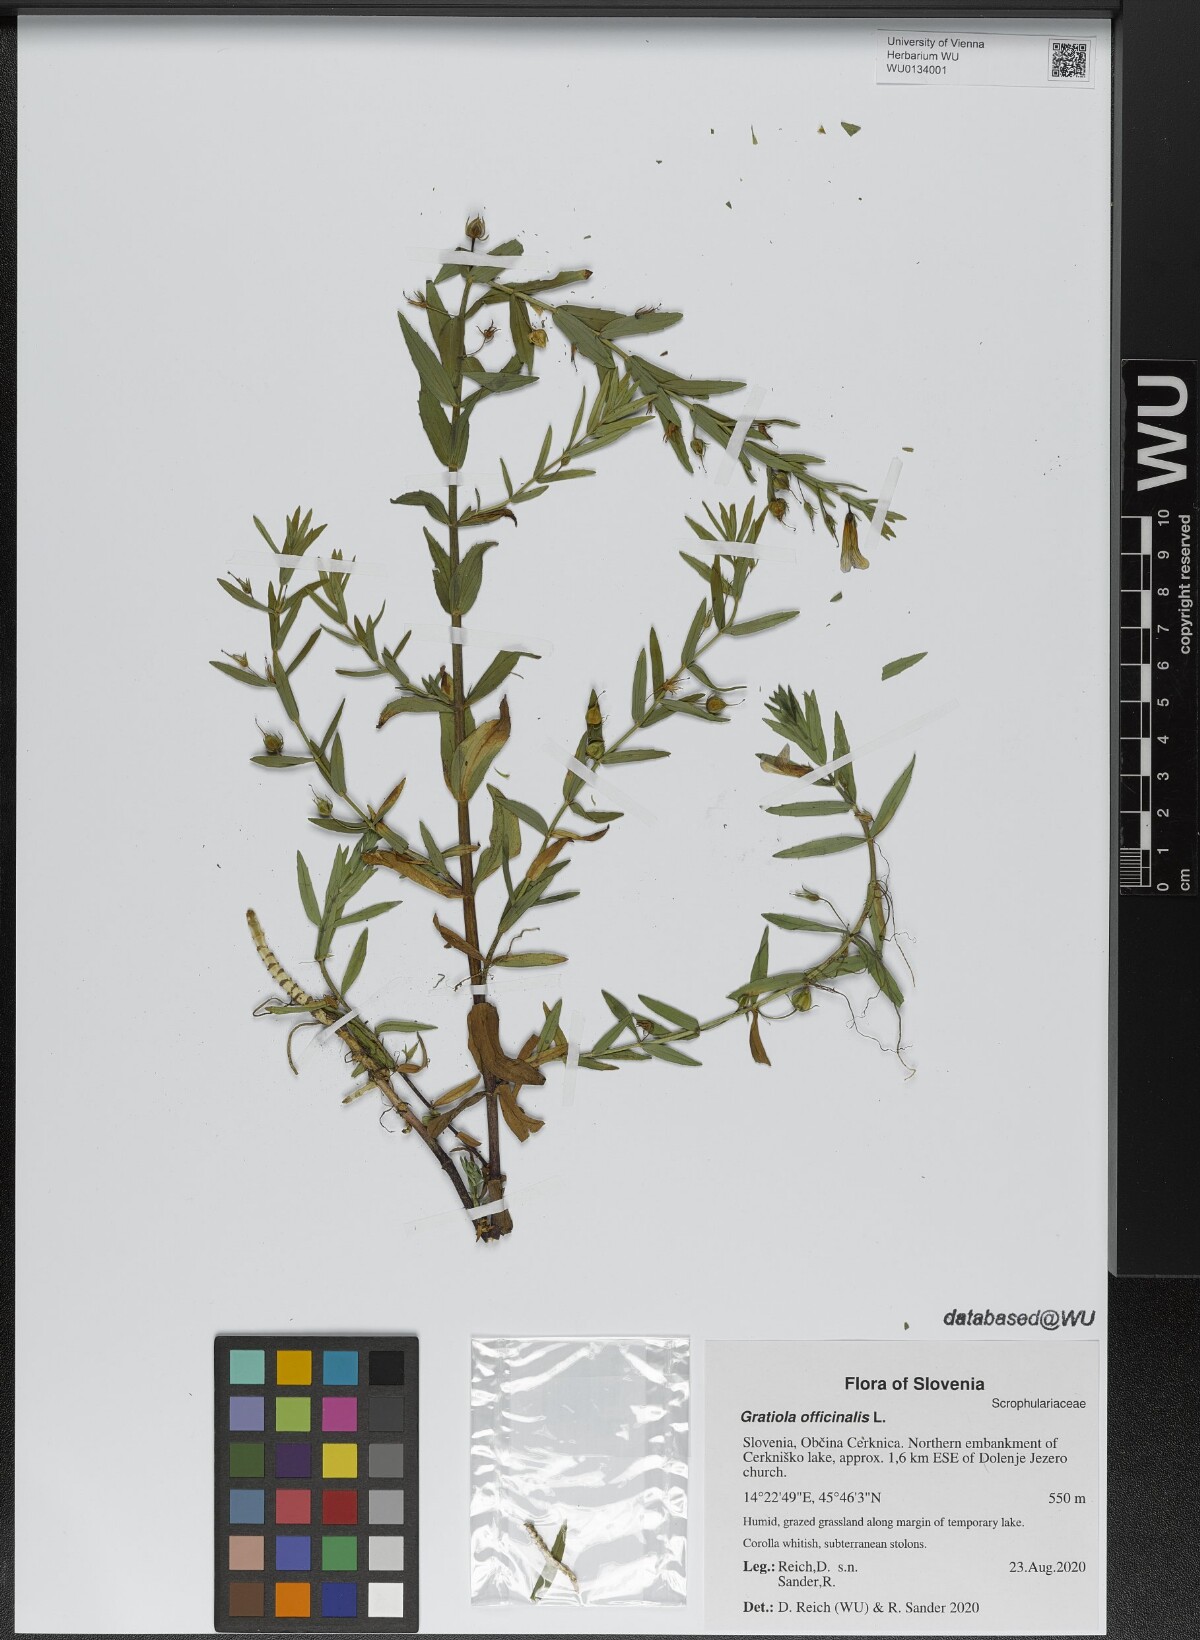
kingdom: Plantae
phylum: Tracheophyta
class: Magnoliopsida
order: Lamiales
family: Plantaginaceae
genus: Gratiola
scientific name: Gratiola officinalis
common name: Gratiola
